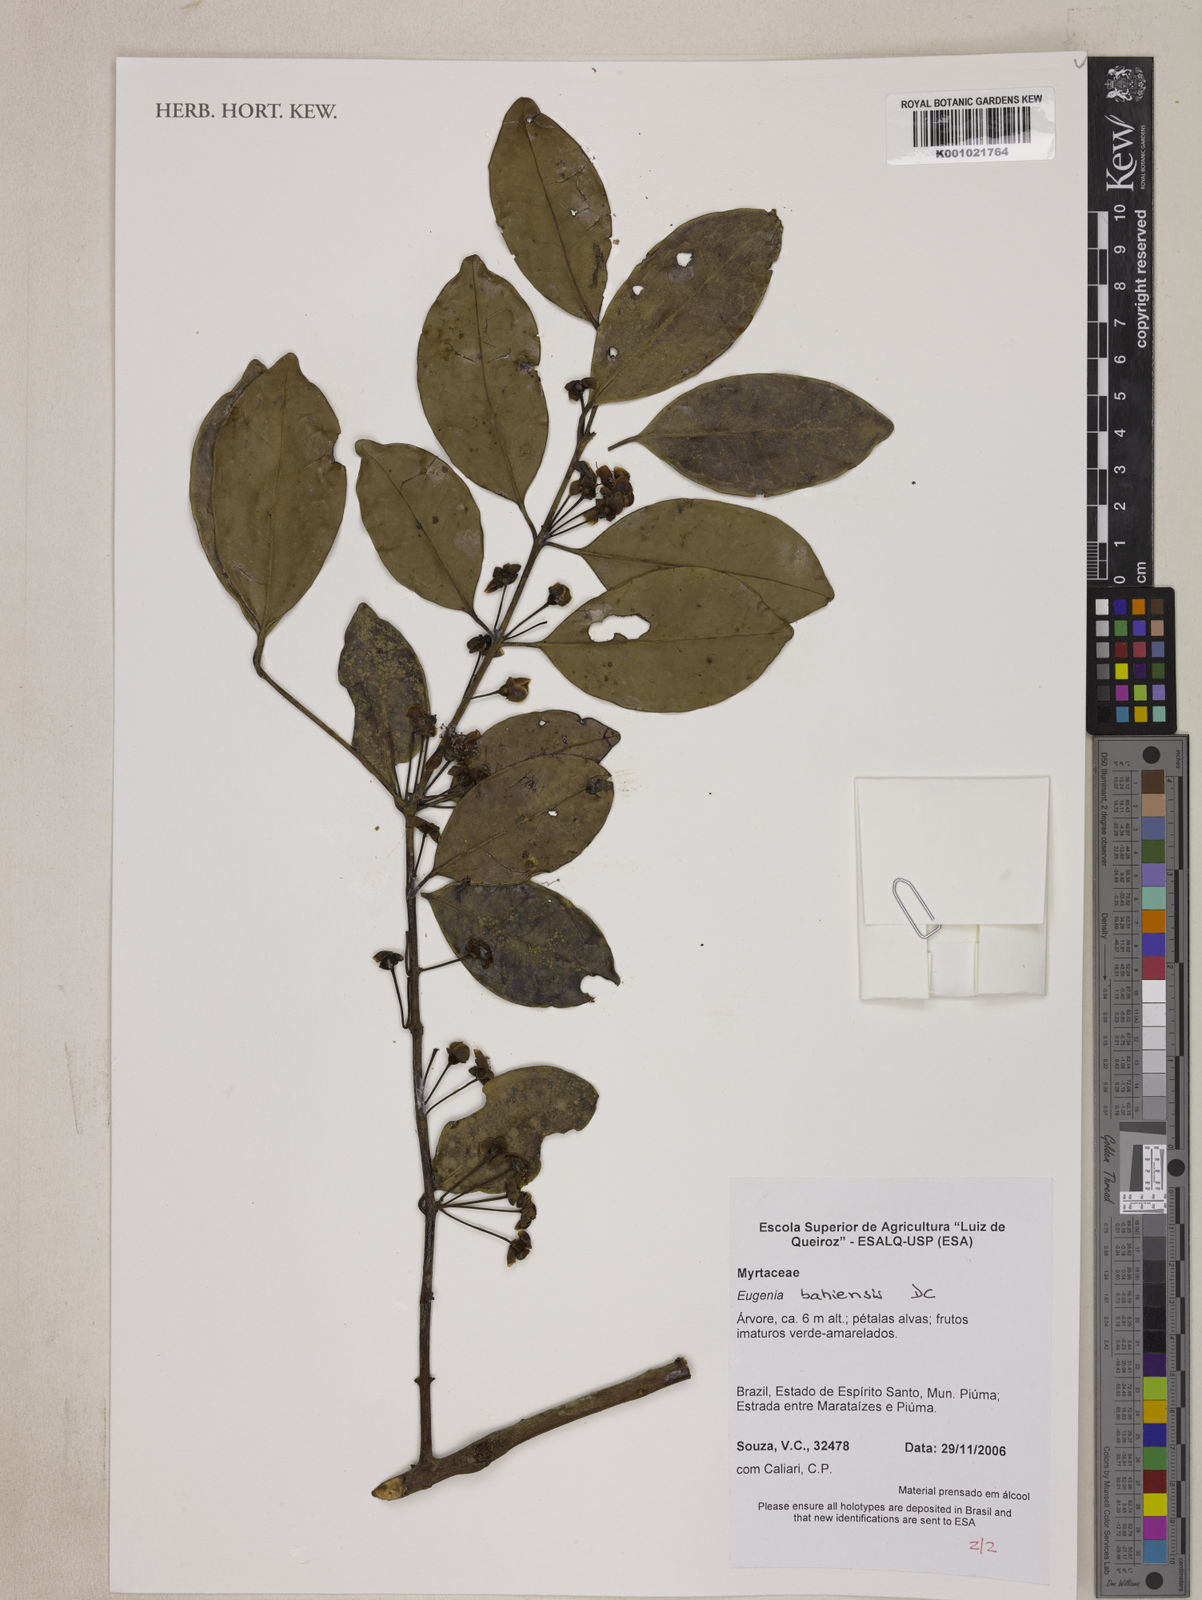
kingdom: Plantae
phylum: Tracheophyta
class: Magnoliopsida
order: Myrtales
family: Myrtaceae
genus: Eugenia
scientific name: Eugenia bahiensis
